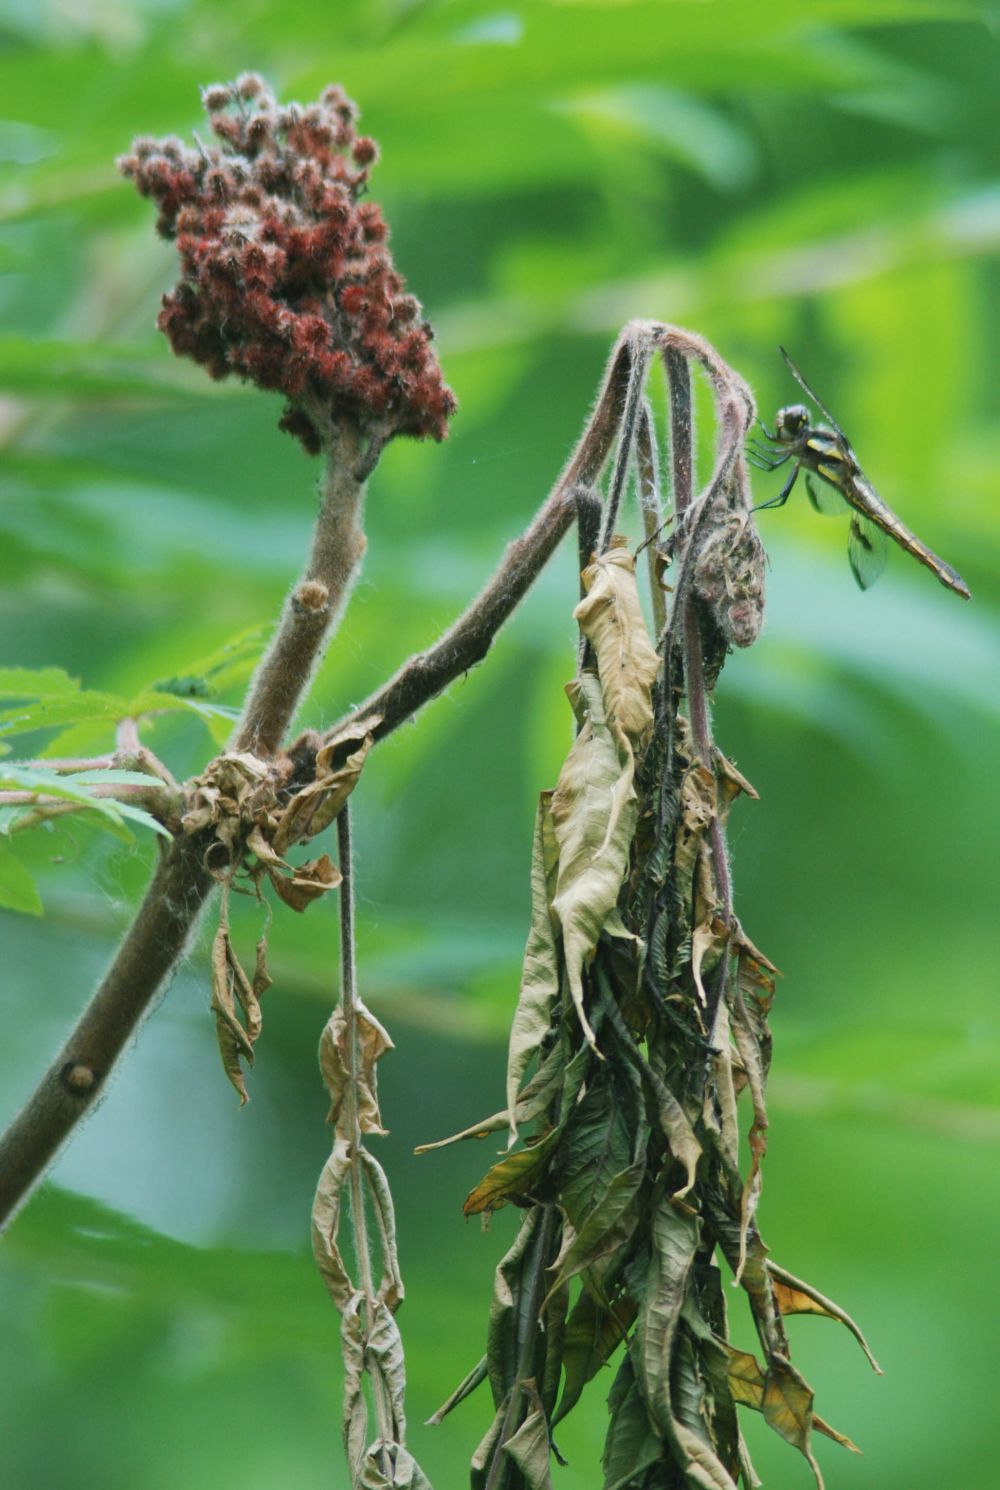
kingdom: Animalia
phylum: Arthropoda
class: Insecta
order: Odonata
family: Libellulidae
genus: Libellula
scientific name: Libellula pulchella
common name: Twelve-spotted skimmer
